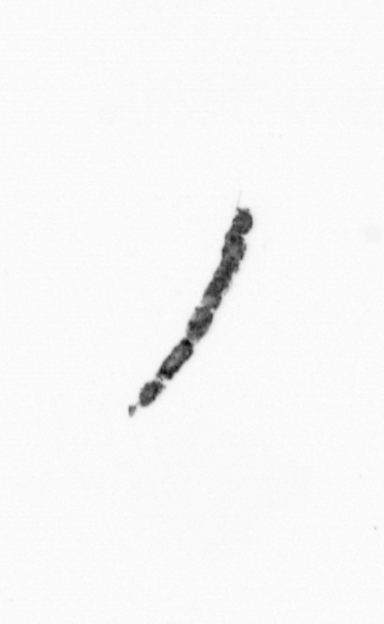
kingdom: Bacteria
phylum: Cyanobacteria
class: Cyanobacteriia
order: Cyanobacteriales
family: Microcoleaceae
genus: Trichodesmium
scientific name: Trichodesmium
